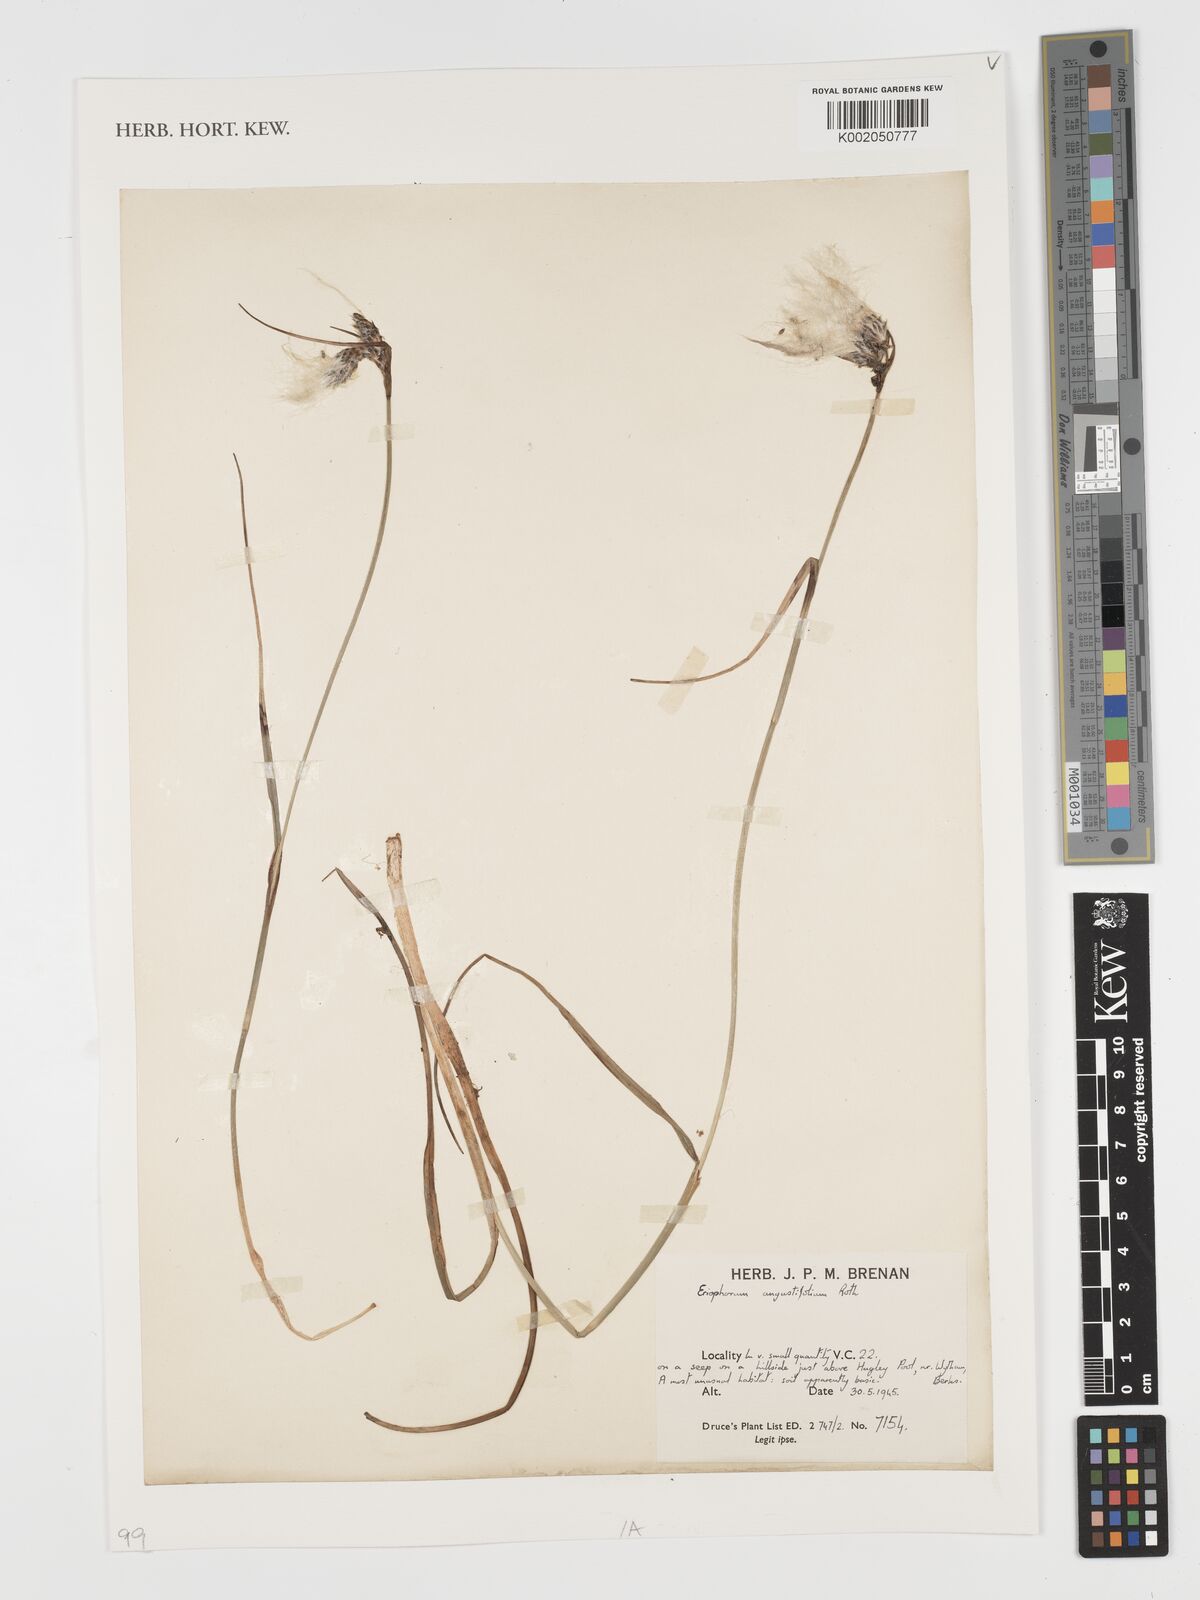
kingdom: Plantae
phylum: Tracheophyta
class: Liliopsida
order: Poales
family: Cyperaceae
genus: Eriophorum
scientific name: Eriophorum angustifolium
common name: Common cottongrass
